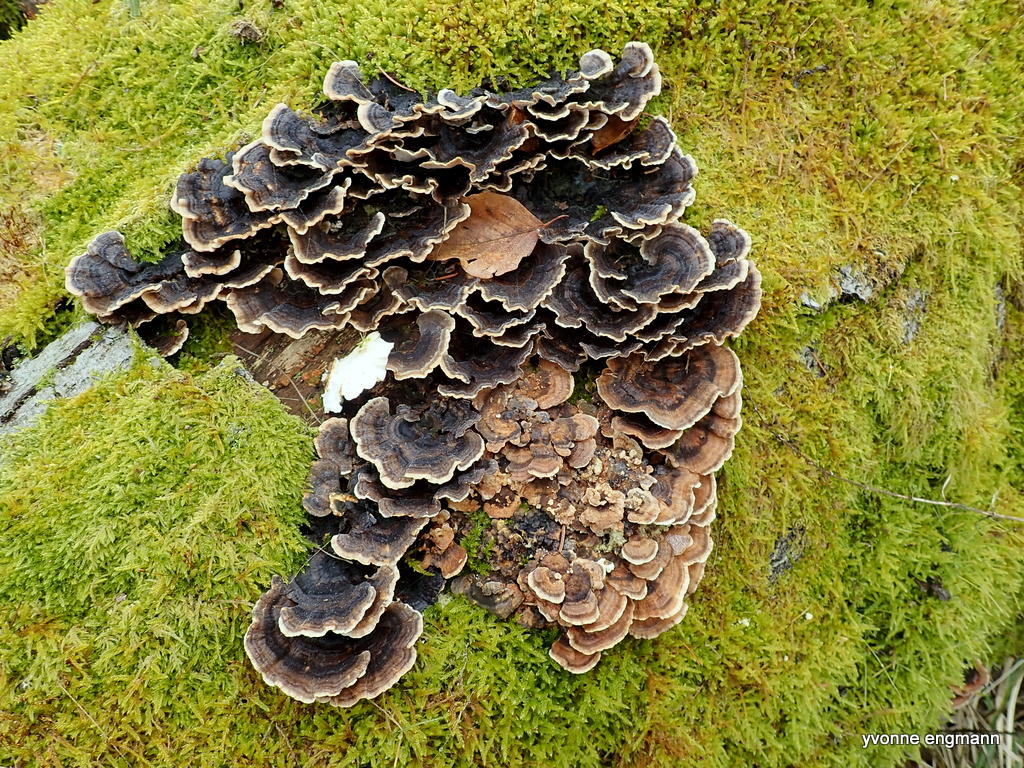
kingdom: Fungi
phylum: Basidiomycota
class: Agaricomycetes
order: Polyporales
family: Polyporaceae
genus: Trametes
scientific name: Trametes versicolor
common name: broget læderporesvamp
